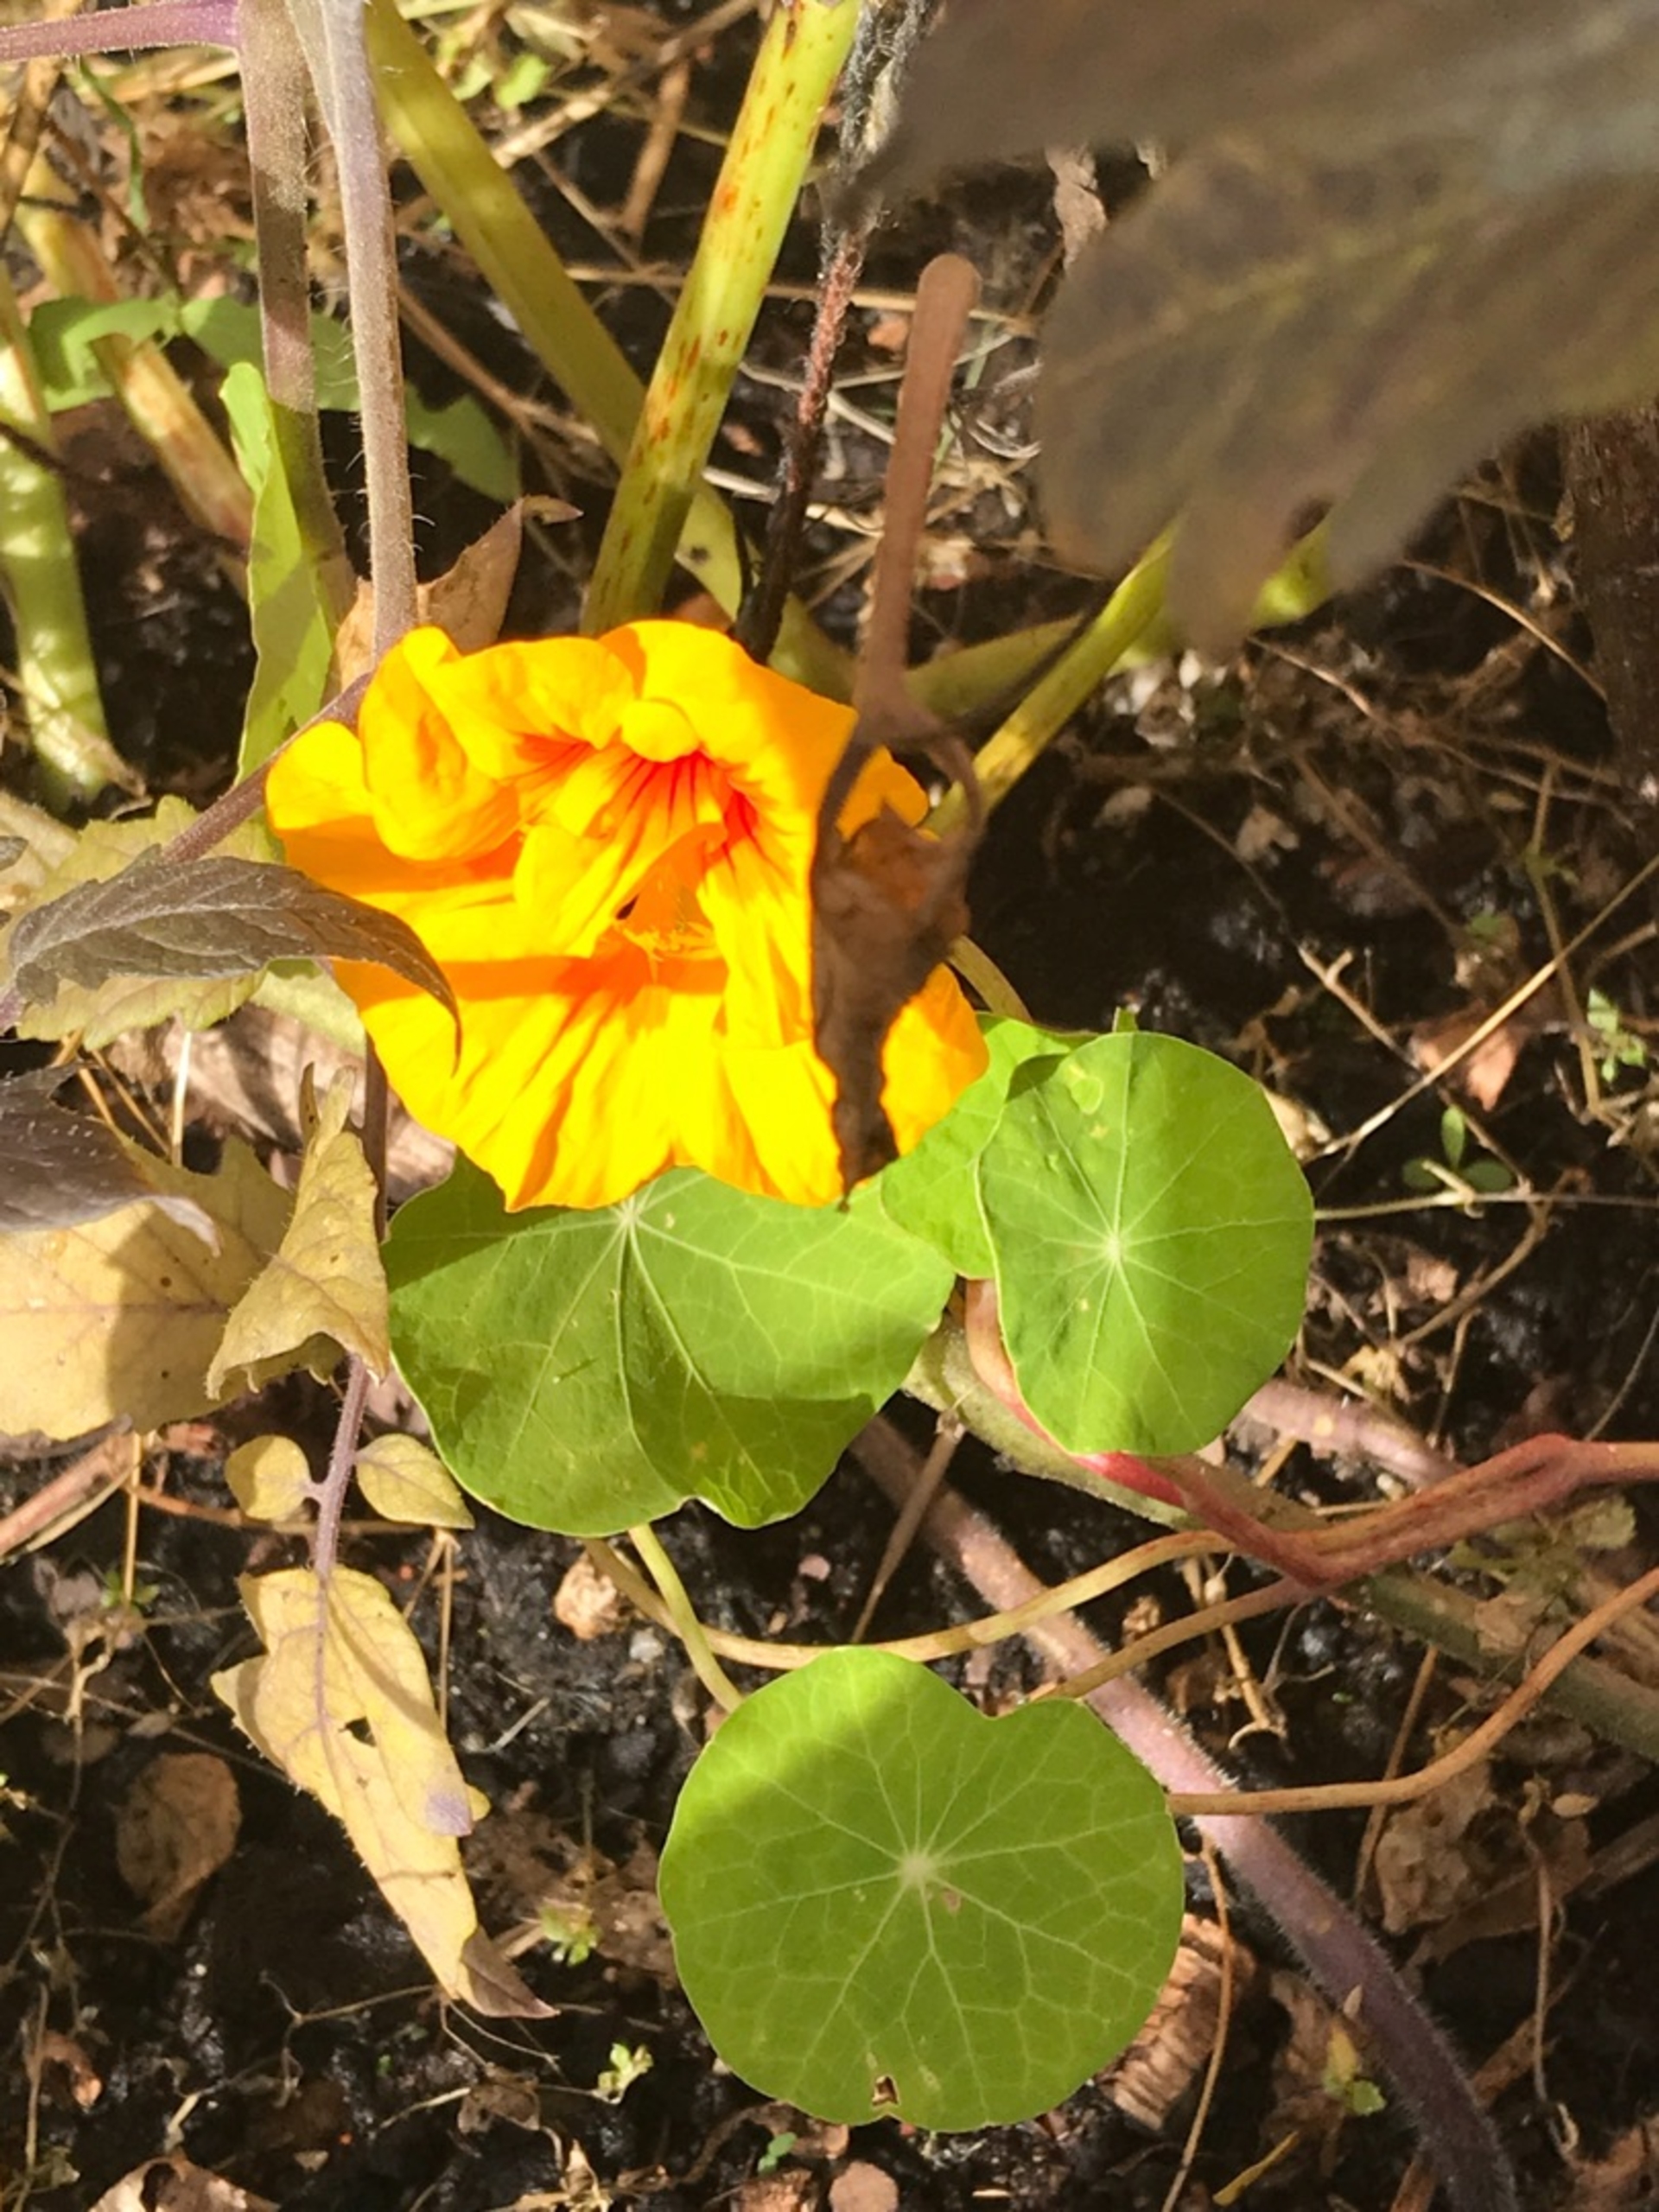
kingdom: Plantae
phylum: Tracheophyta
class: Magnoliopsida
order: Brassicales
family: Tropaeolaceae
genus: Tropaeolum
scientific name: Tropaeolum majus
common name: Blomsterkarse
